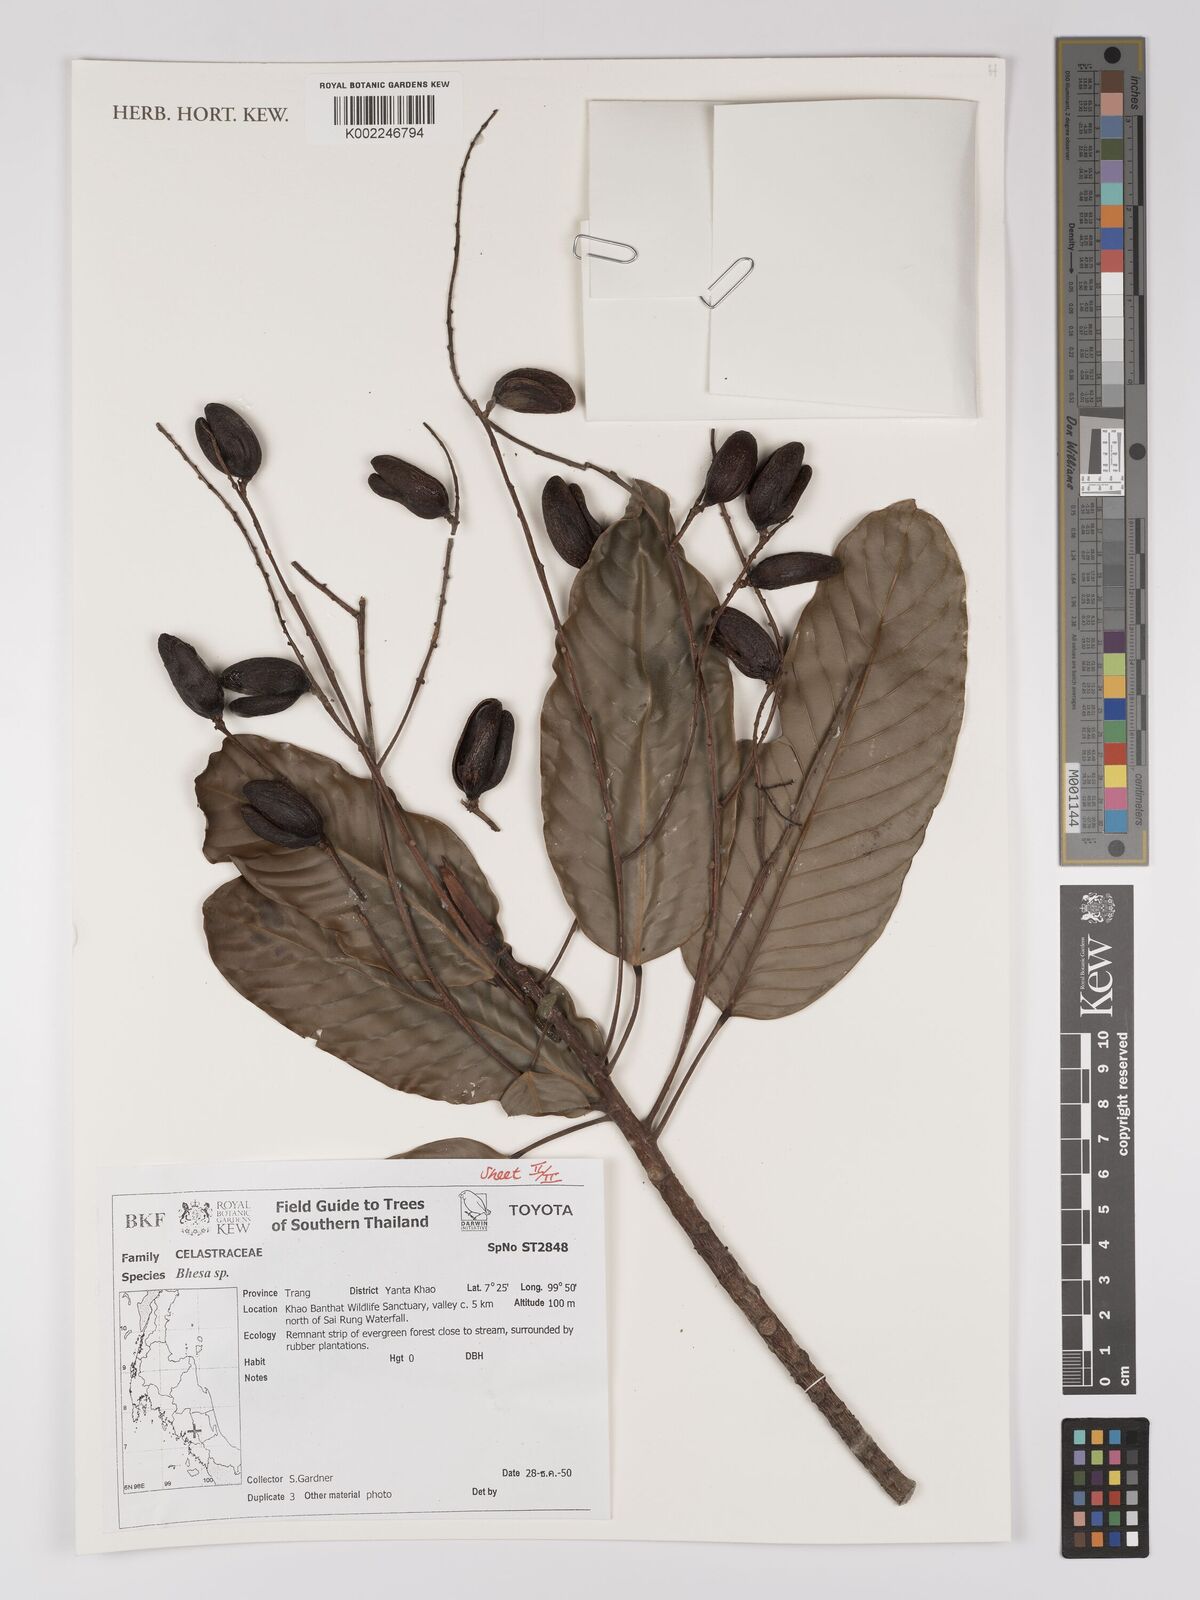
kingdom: Plantae
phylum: Tracheophyta
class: Magnoliopsida
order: Malpighiales
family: Centroplacaceae
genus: Bhesa
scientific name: Bhesa
